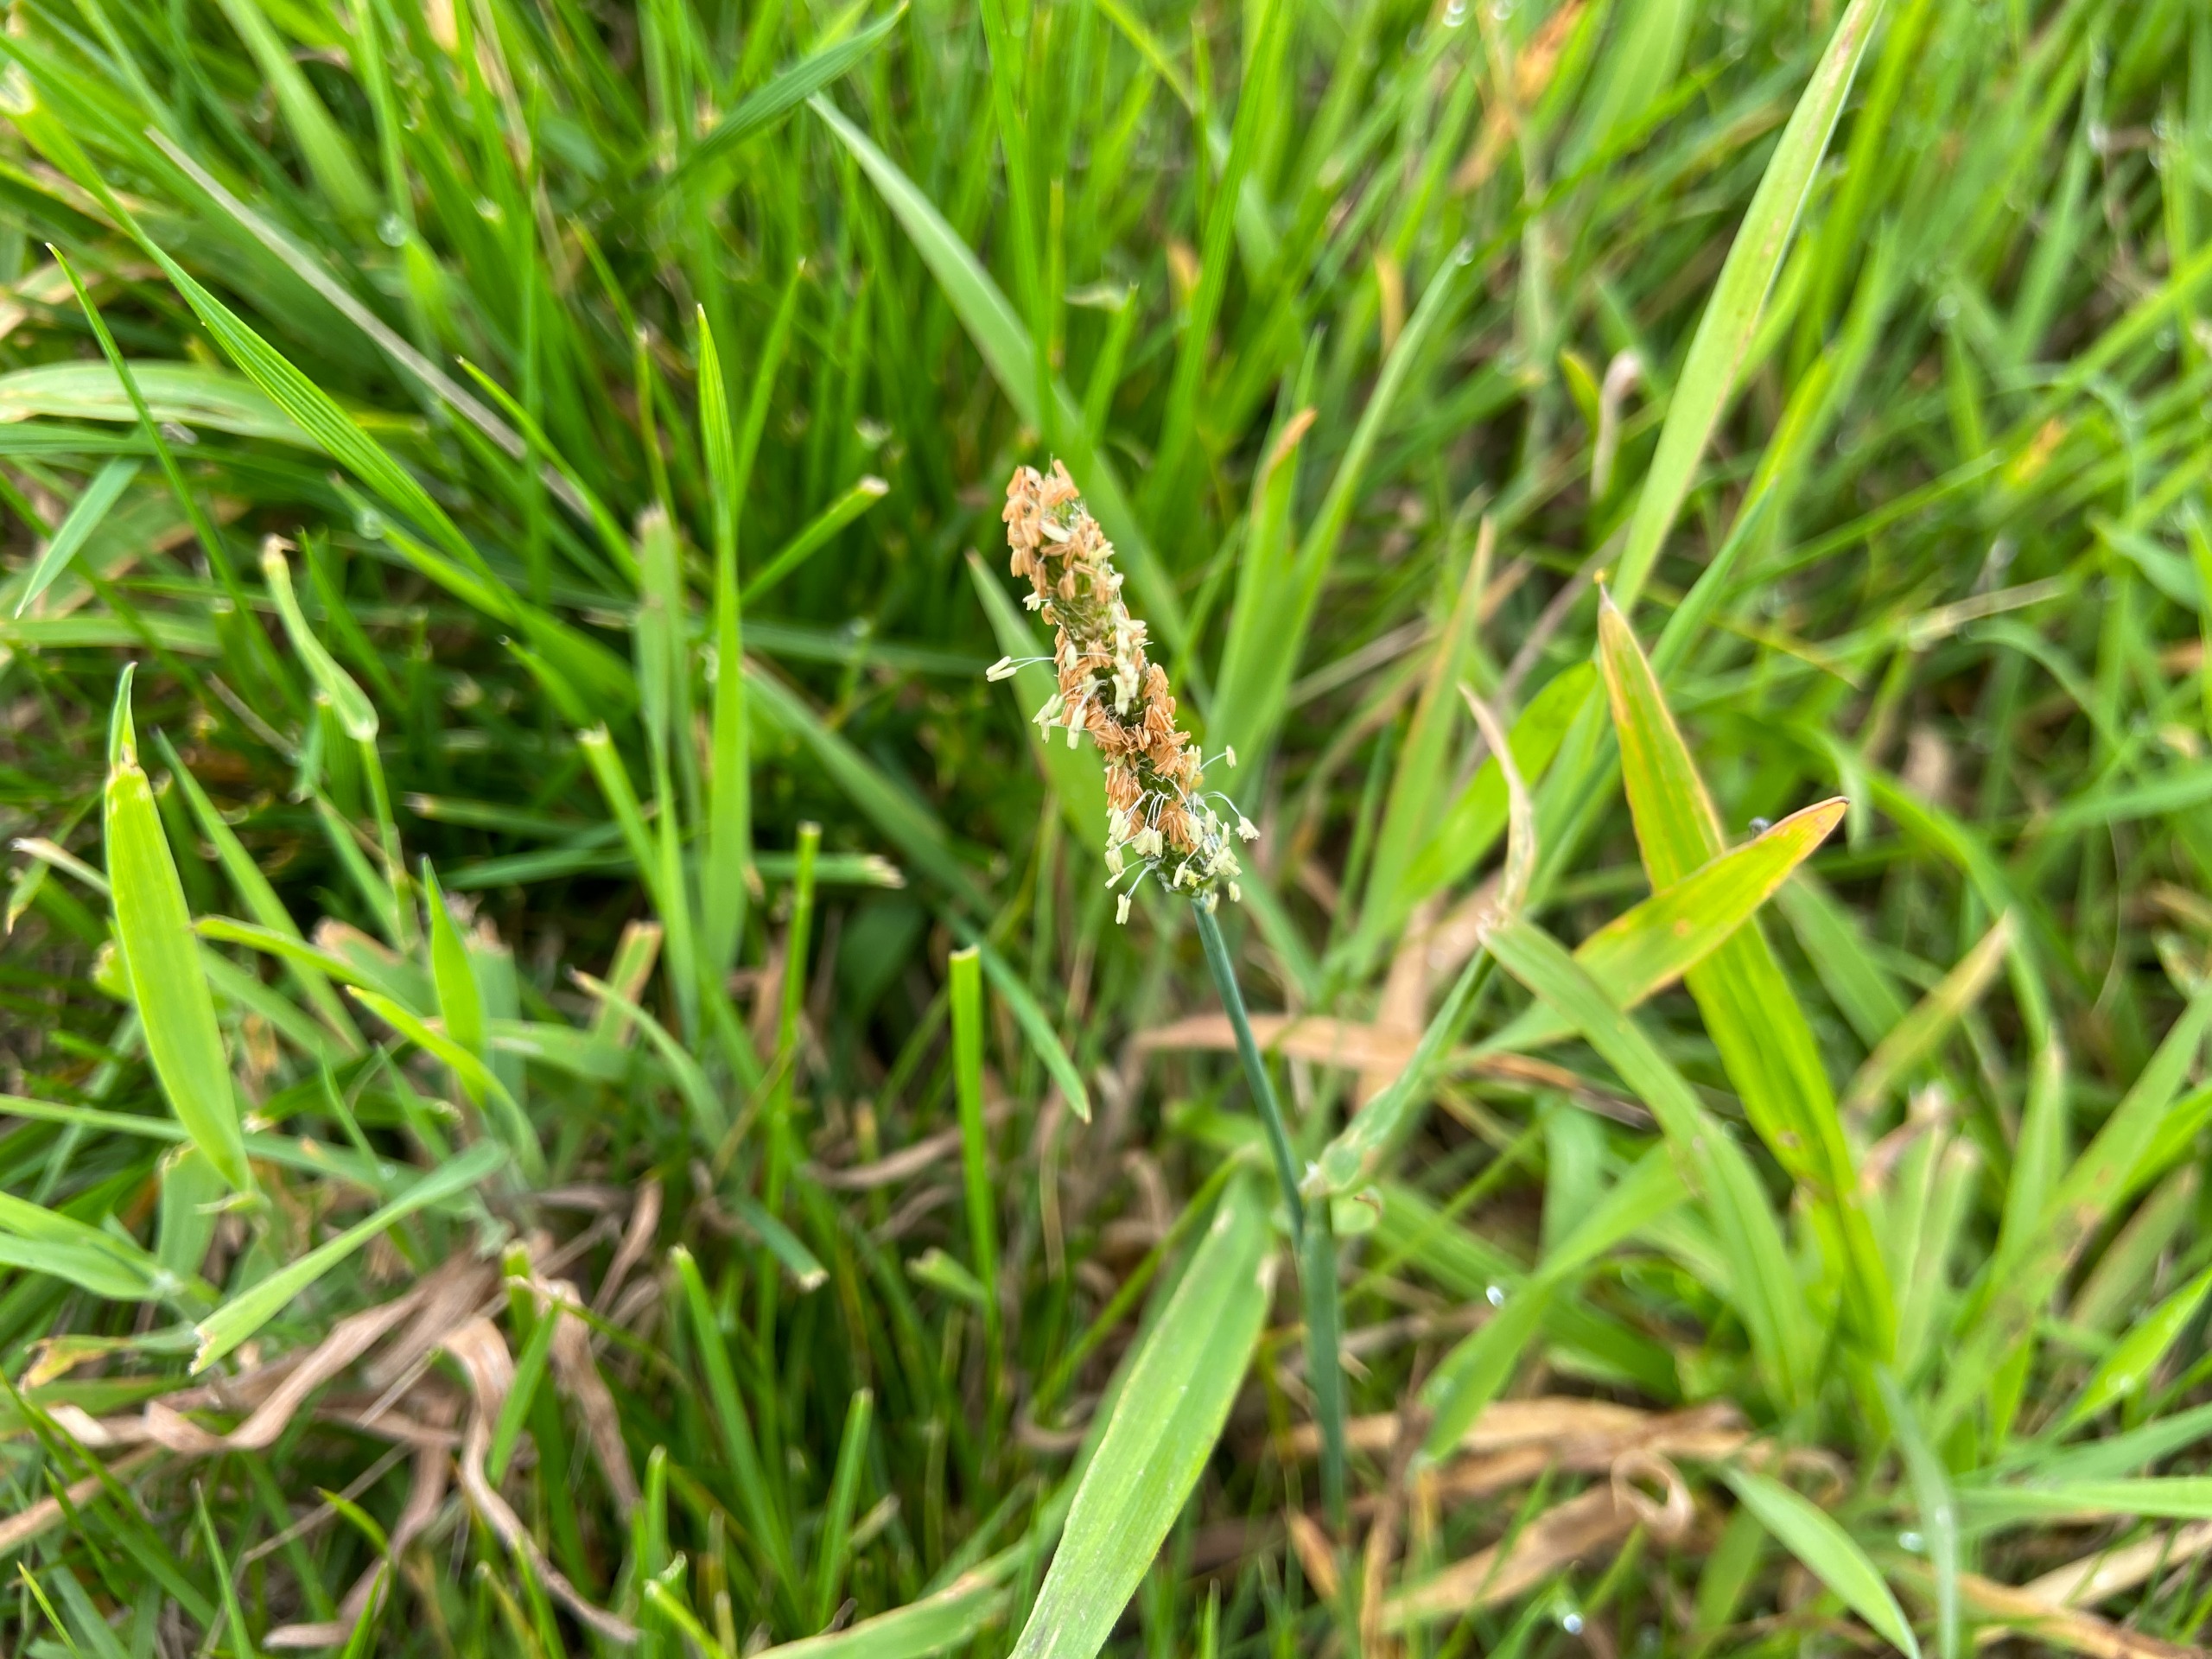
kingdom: Plantae
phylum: Tracheophyta
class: Liliopsida
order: Poales
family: Poaceae
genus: Alopecurus
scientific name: Alopecurus geniculatus
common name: Knæbøjet rævehale
